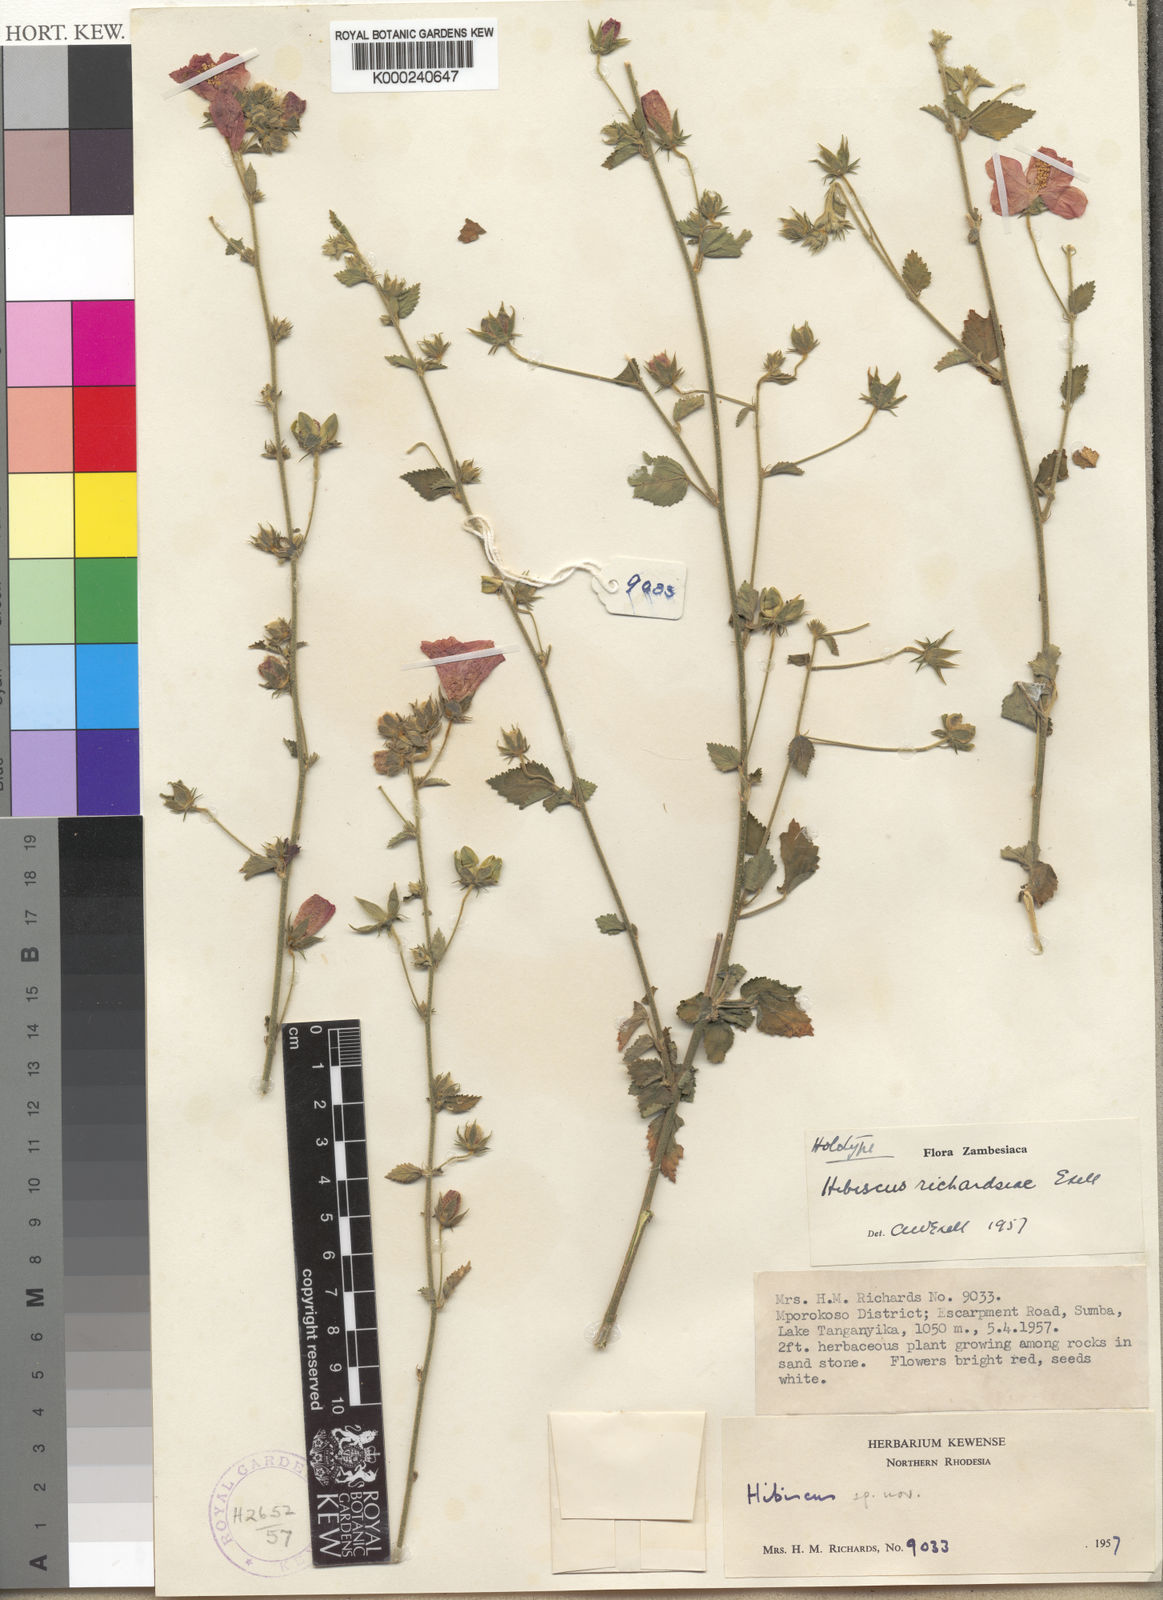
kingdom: Plantae
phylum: Tracheophyta
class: Magnoliopsida
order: Malvales
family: Malvaceae
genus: Hibiscus
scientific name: Hibiscus richardsiae
